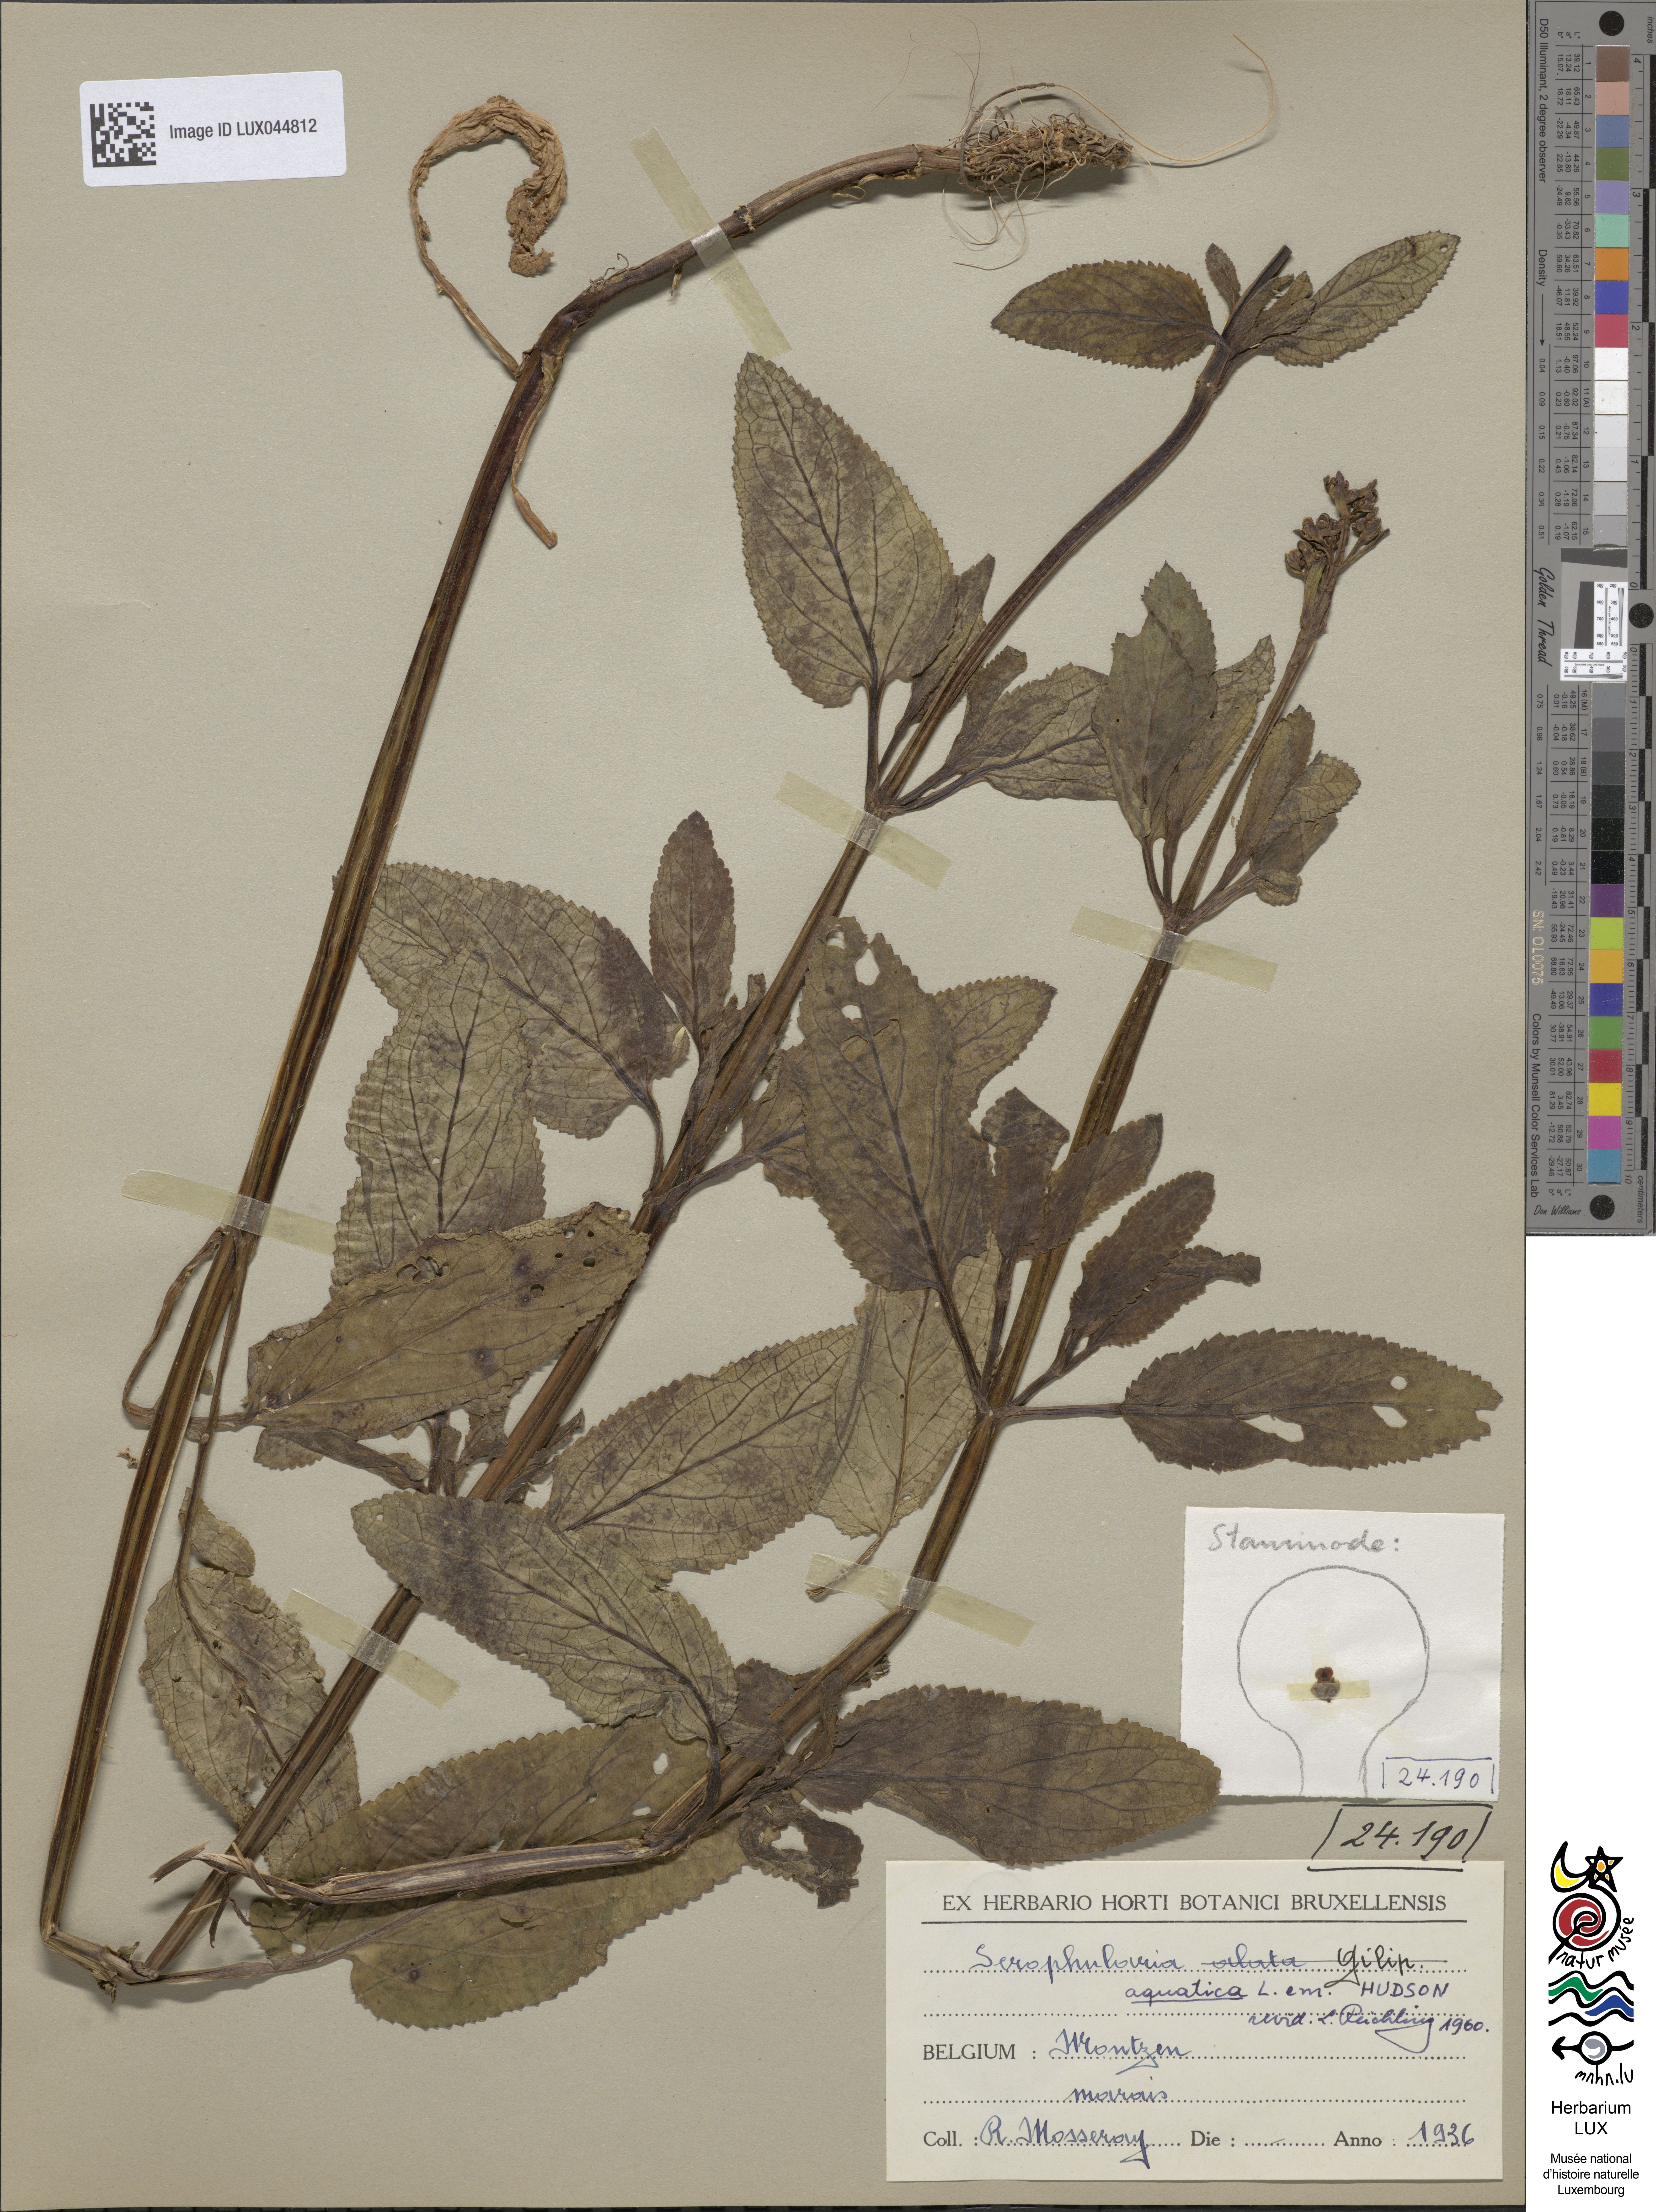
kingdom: Plantae
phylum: Tracheophyta
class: Magnoliopsida
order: Lamiales
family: Scrophulariaceae
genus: Scrophularia
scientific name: Scrophularia umbrosa
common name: Green figwort
